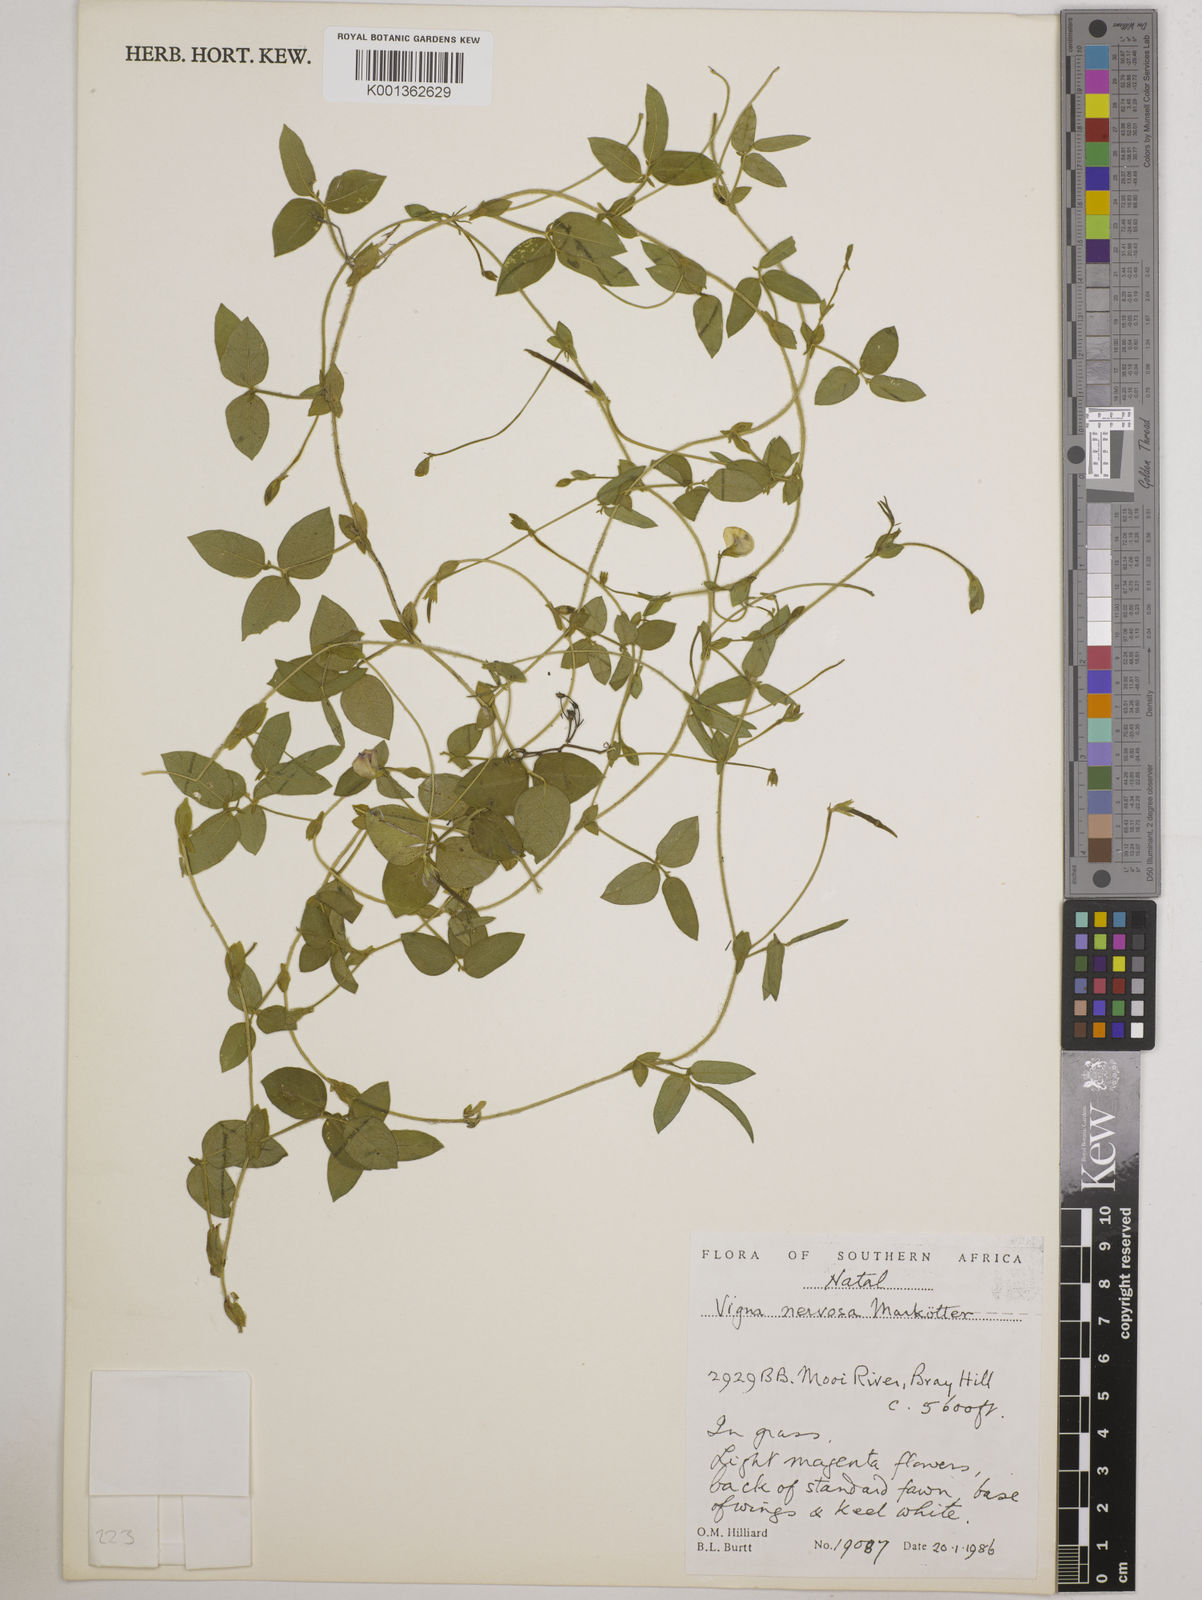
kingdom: Plantae
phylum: Tracheophyta
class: Magnoliopsida
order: Fabales
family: Fabaceae
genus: Vigna
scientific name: Vigna nervosa
